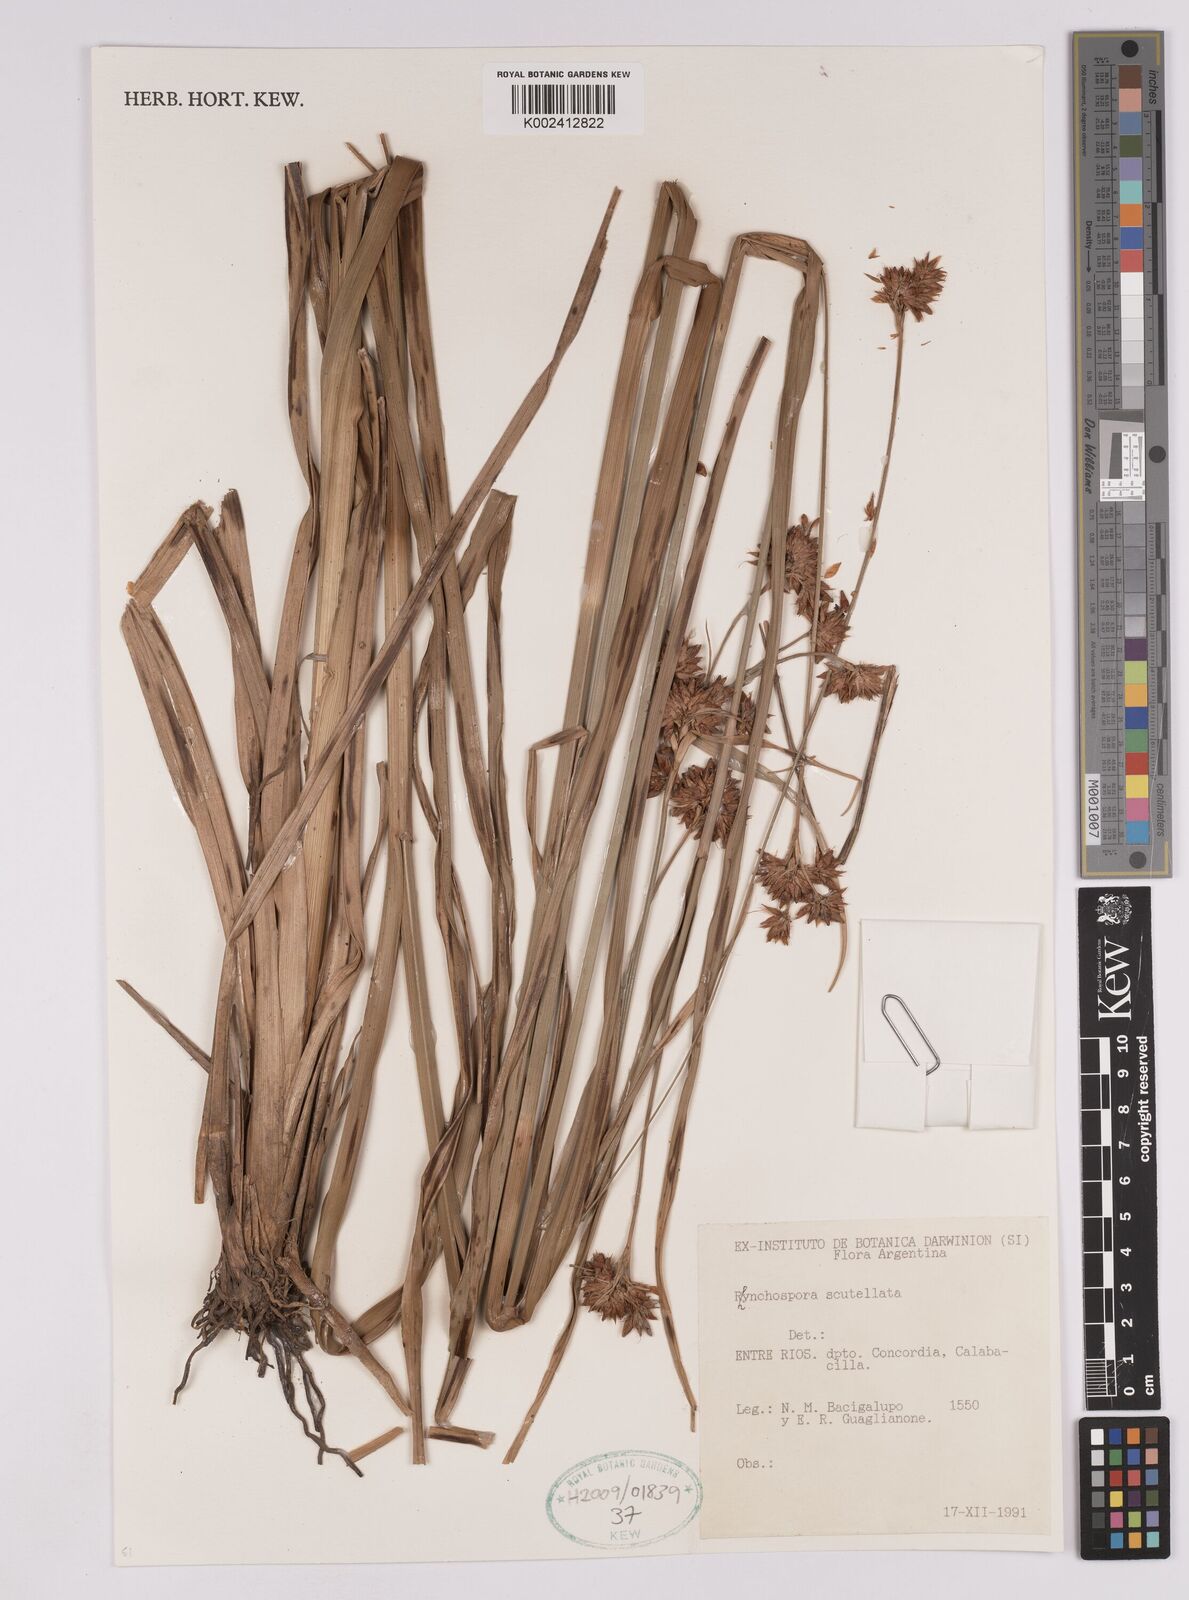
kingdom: Plantae
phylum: Tracheophyta
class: Liliopsida
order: Poales
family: Cyperaceae
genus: Rhynchospora
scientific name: Rhynchospora scutellata
